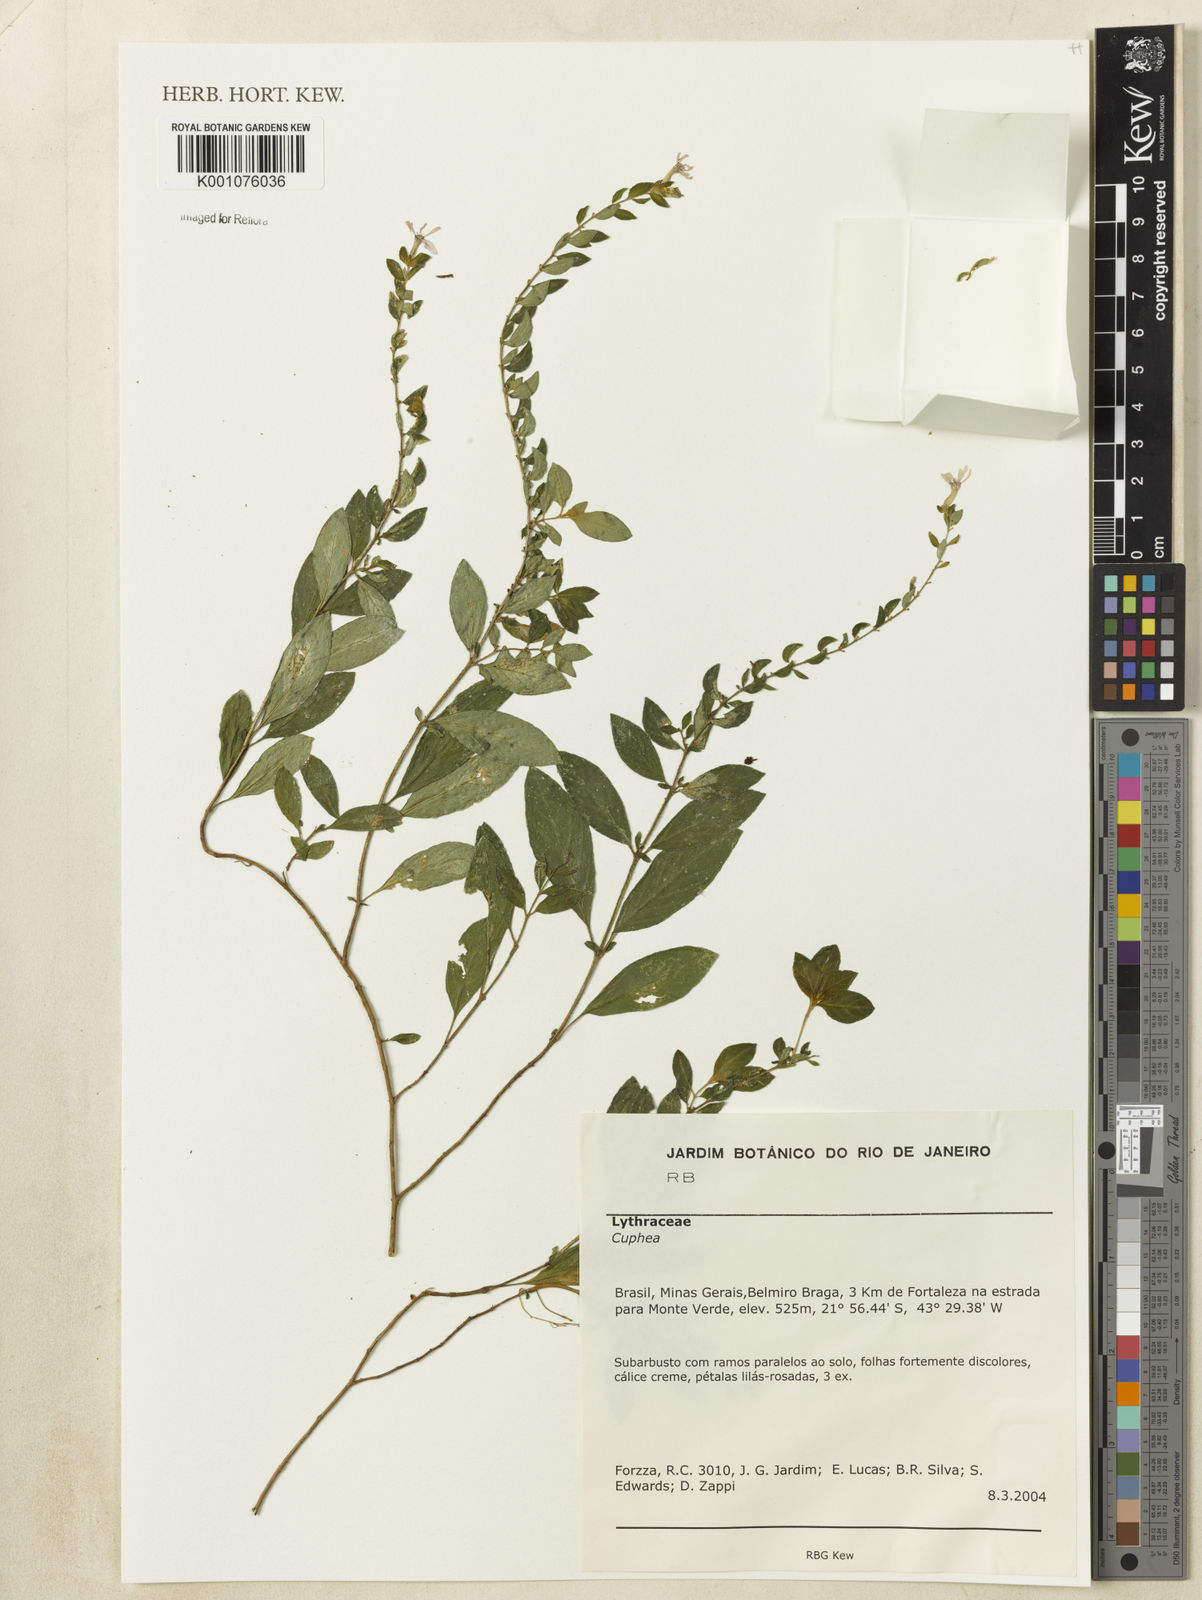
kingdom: Plantae
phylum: Tracheophyta
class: Magnoliopsida
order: Myrtales
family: Lythraceae
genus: Cuphea
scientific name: Cuphea
